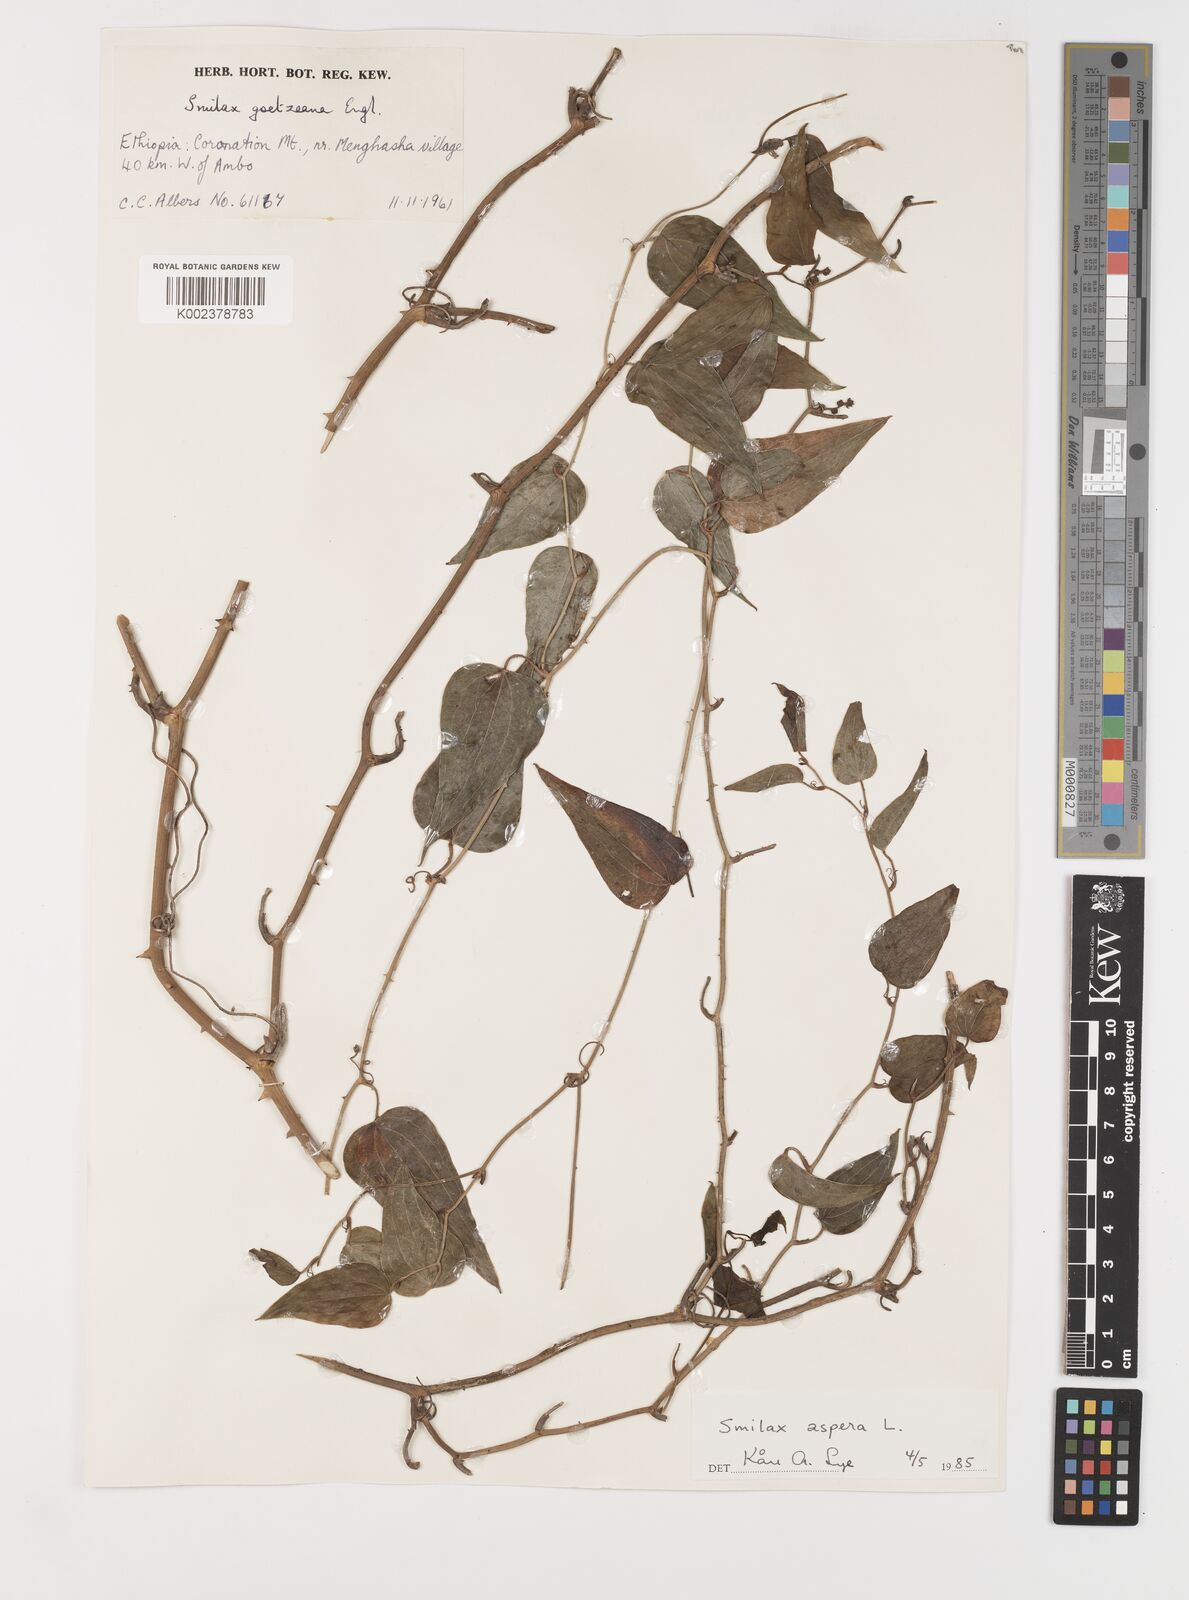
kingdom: Plantae
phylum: Tracheophyta
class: Liliopsida
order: Liliales
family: Smilacaceae
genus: Smilax
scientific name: Smilax aspera
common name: Common smilax
